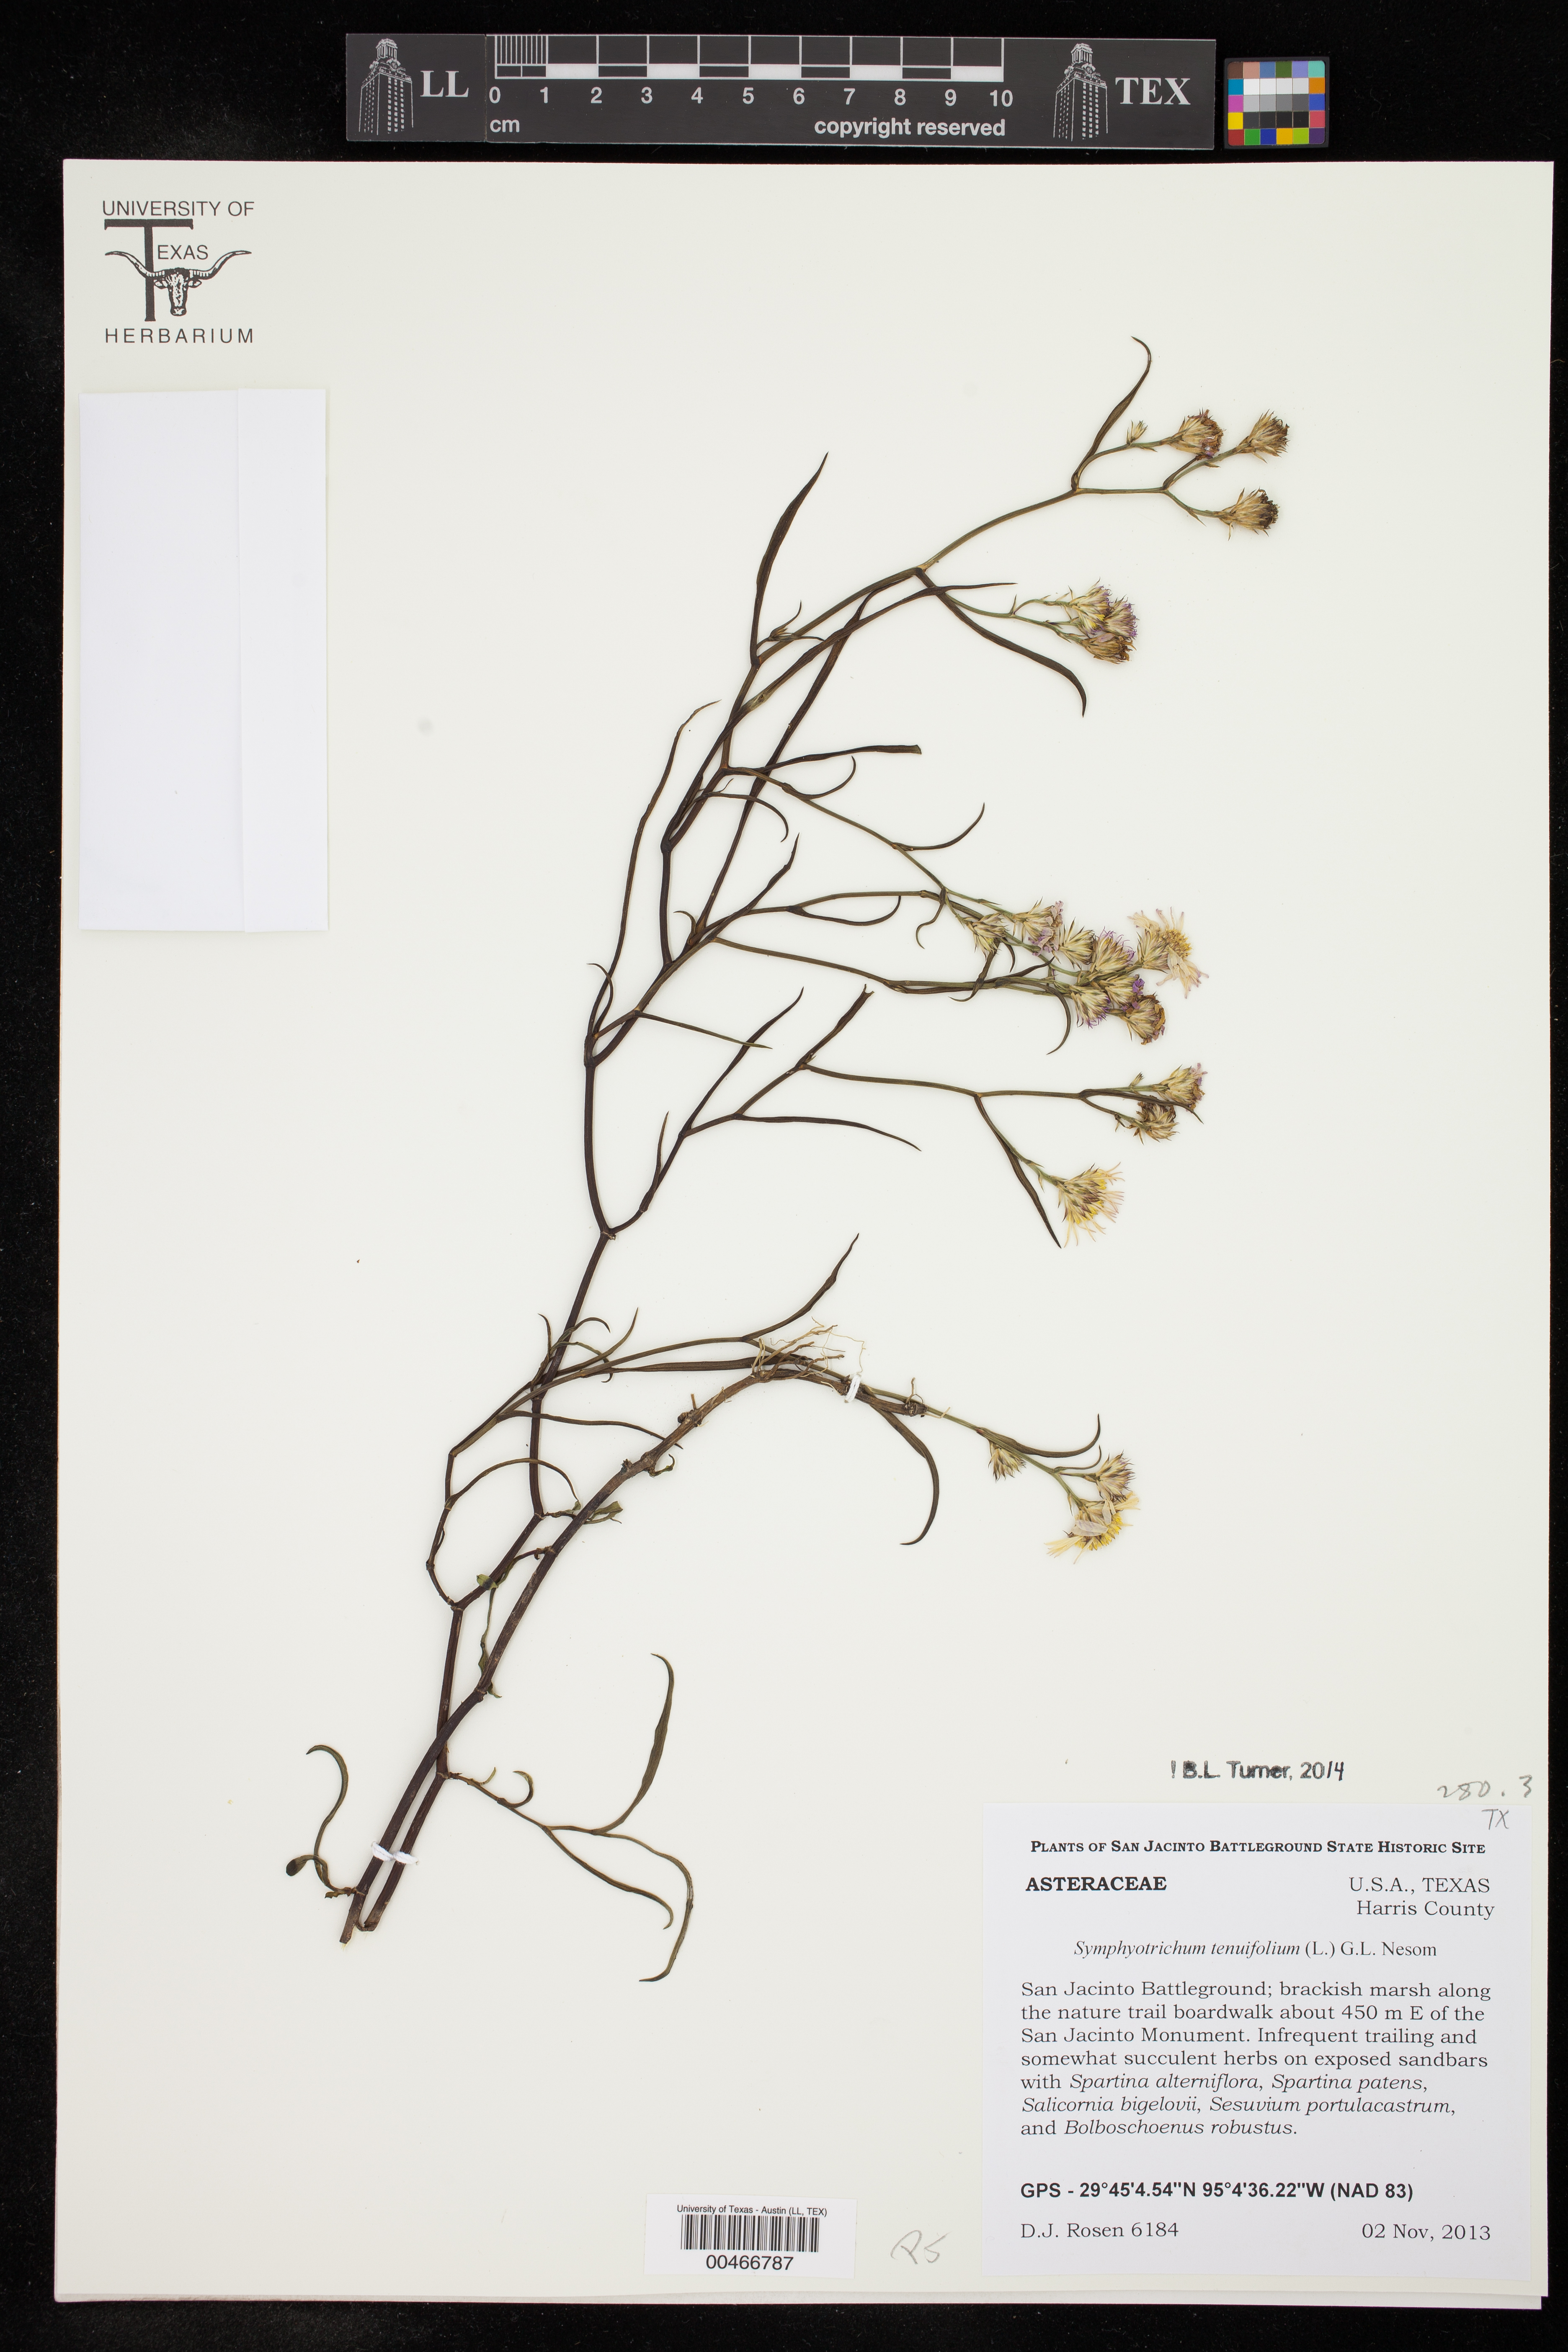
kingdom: Plantae
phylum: Tracheophyta
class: Magnoliopsida
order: Asterales
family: Asteraceae
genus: Symphyotrichum
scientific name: Symphyotrichum tenuifolium
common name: Perennial salt-marsh aster
